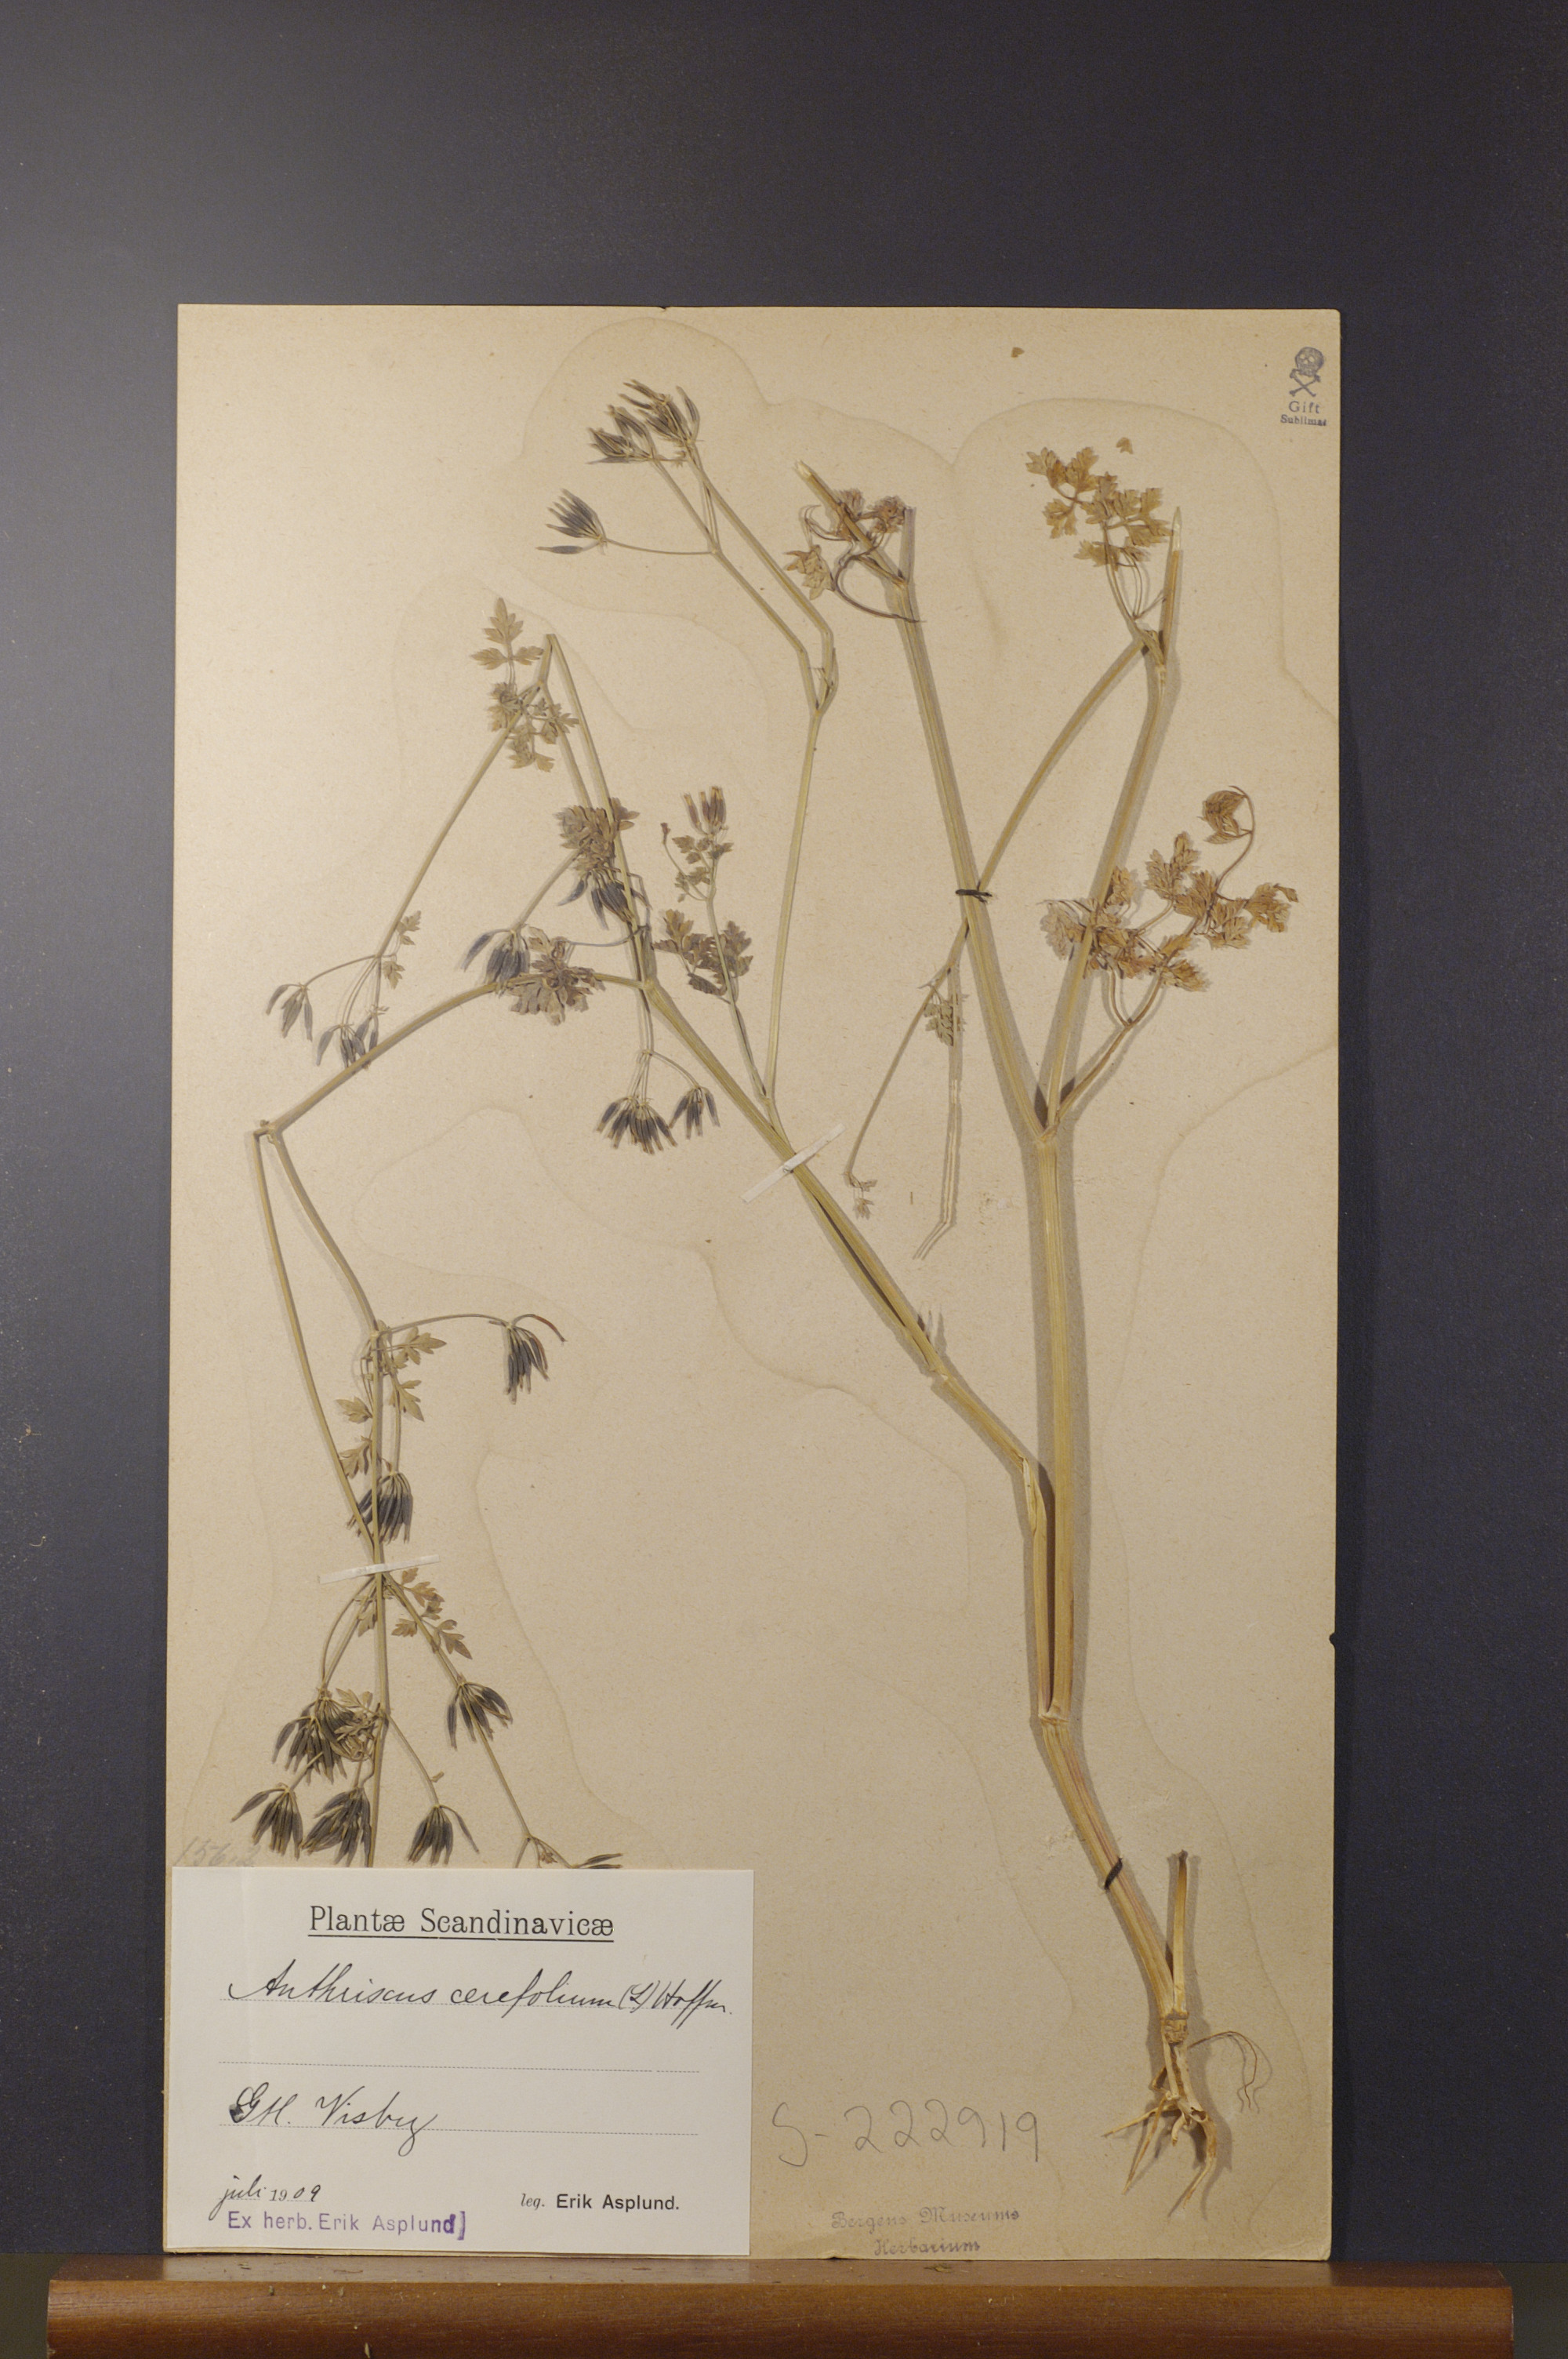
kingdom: Plantae
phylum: Tracheophyta
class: Magnoliopsida
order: Apiales
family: Apiaceae
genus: Anthriscus
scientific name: Anthriscus cerefolium
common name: Garden chervil
